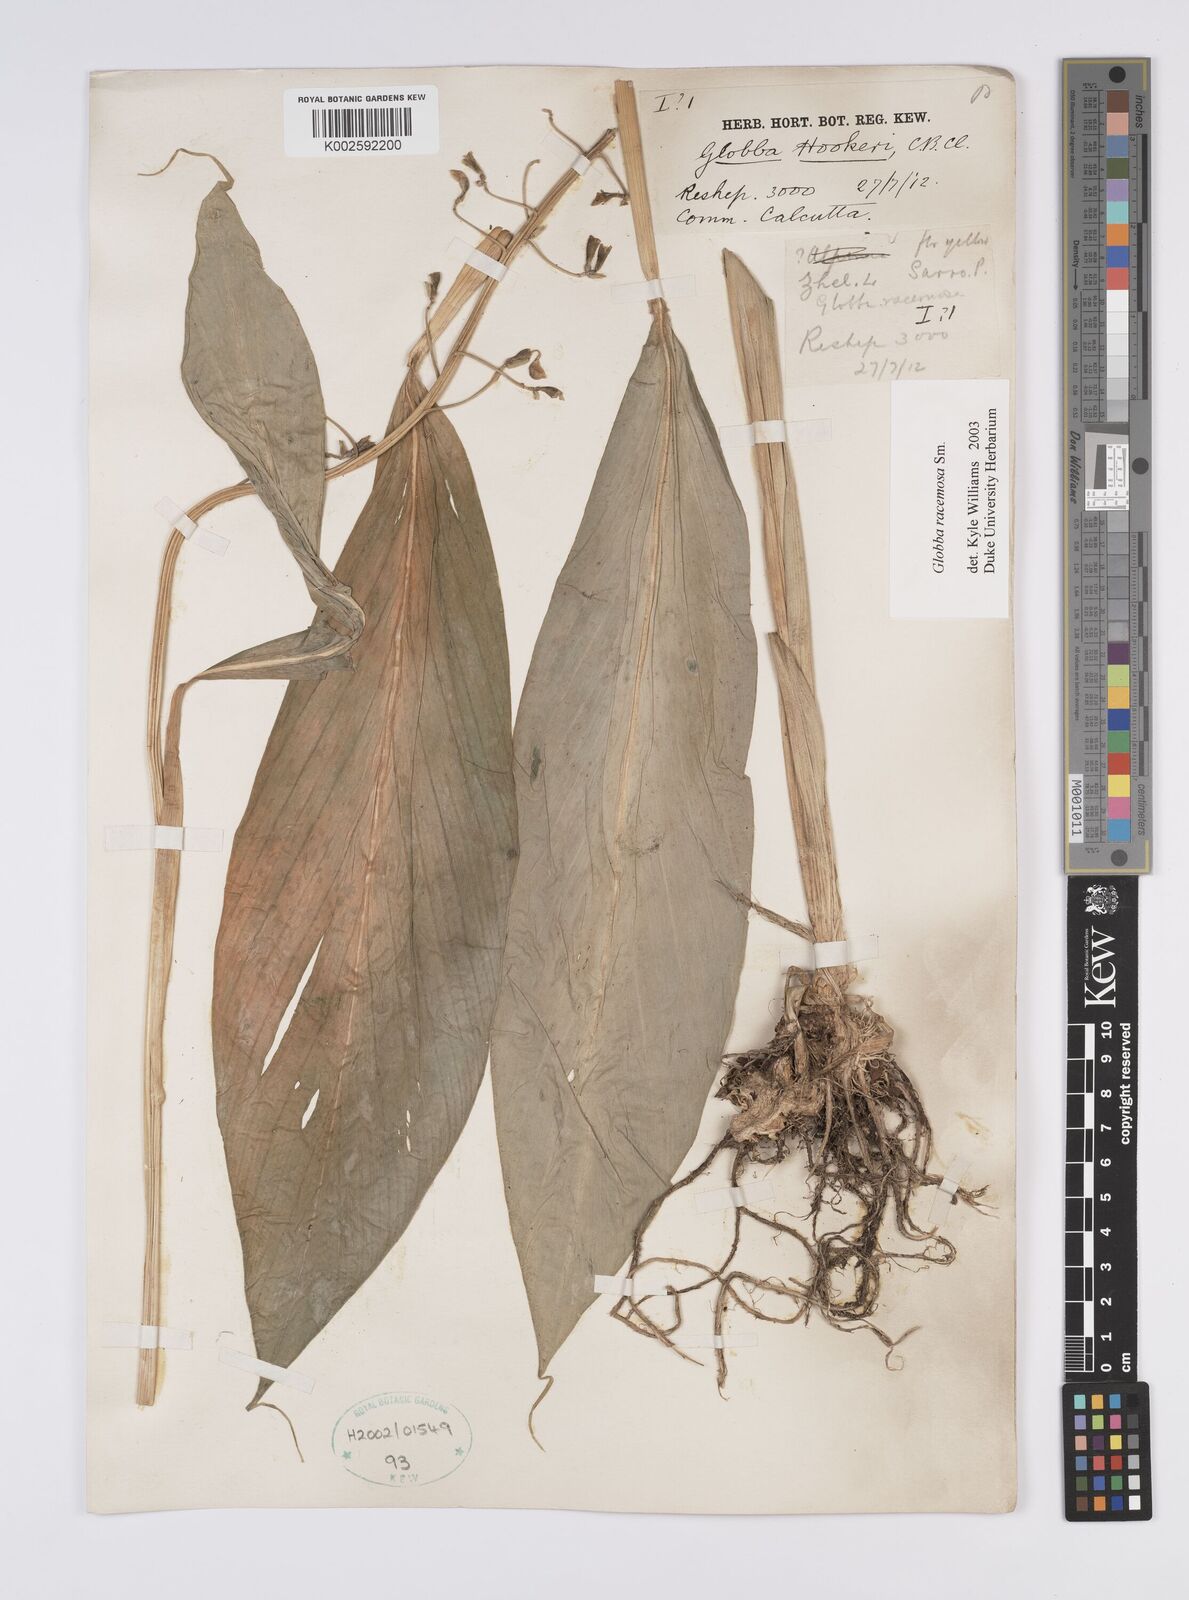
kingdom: Plantae
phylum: Tracheophyta
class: Liliopsida
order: Zingiberales
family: Zingiberaceae
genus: Globba
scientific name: Globba racemosa
